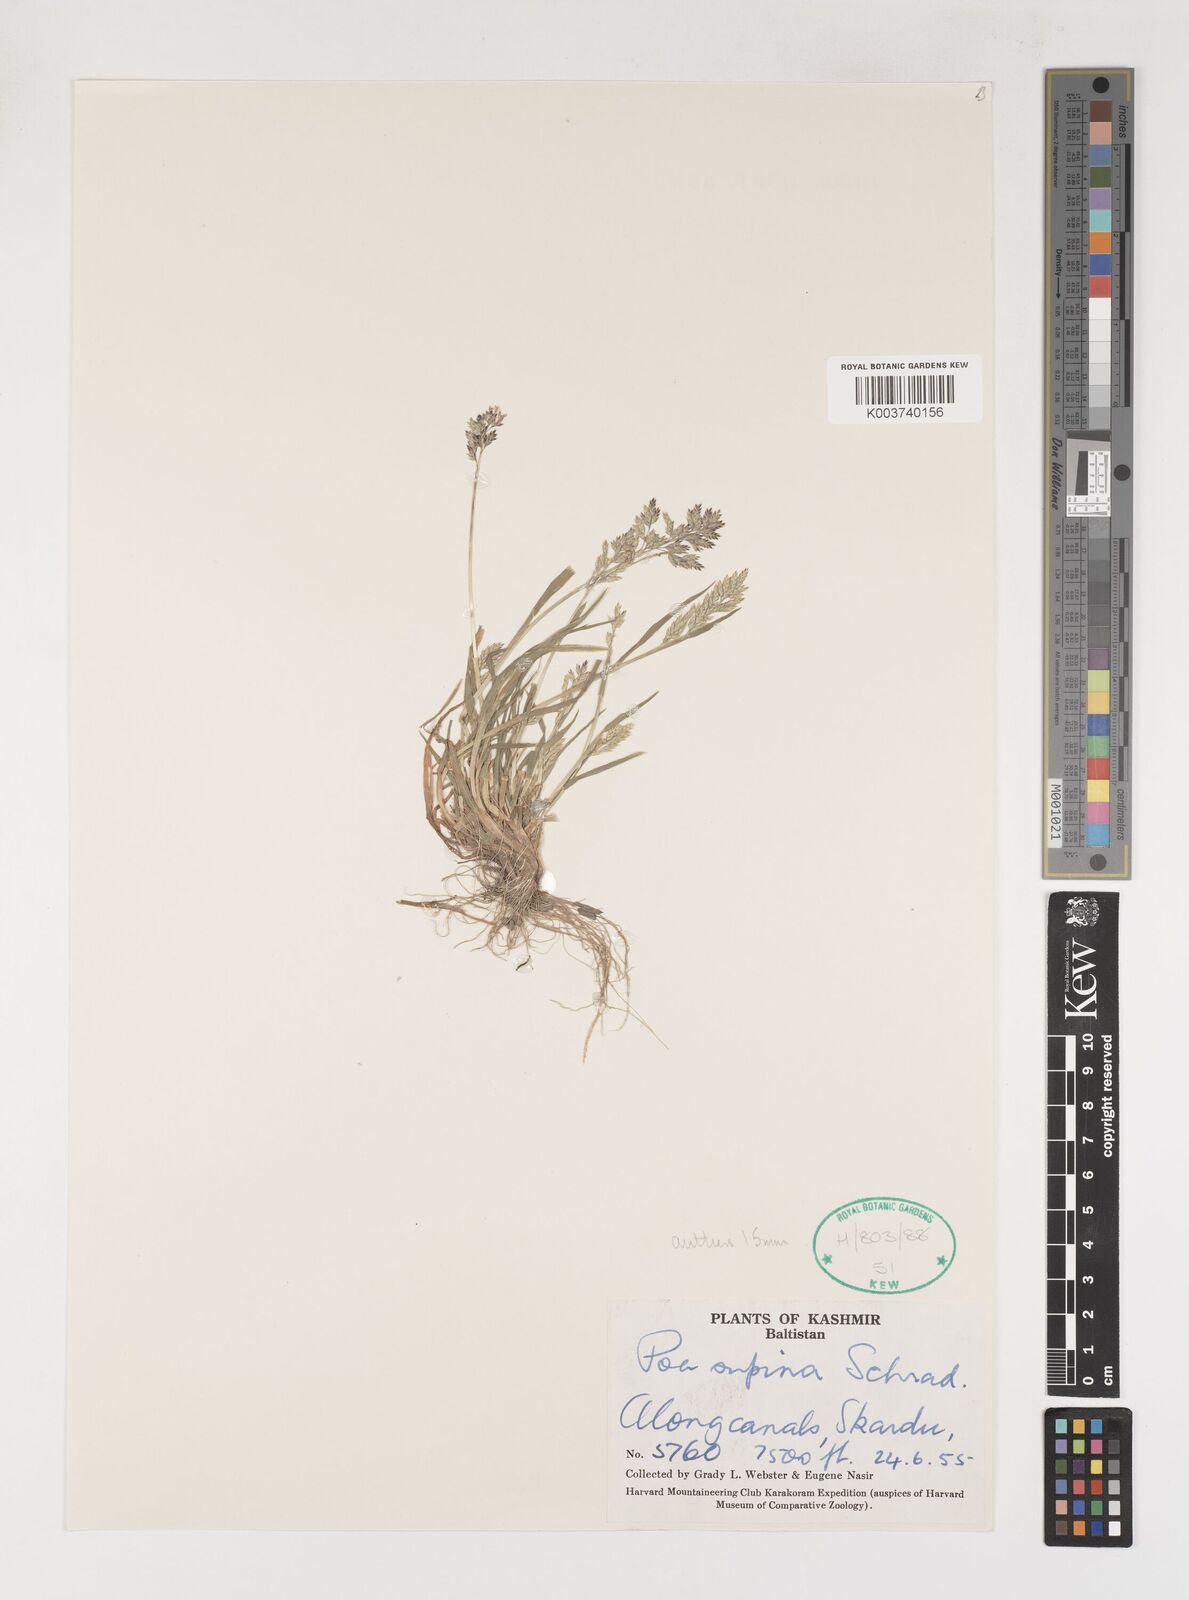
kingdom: Plantae
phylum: Tracheophyta
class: Liliopsida
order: Poales
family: Poaceae
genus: Poa
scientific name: Poa supina
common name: Supina bluegrass
